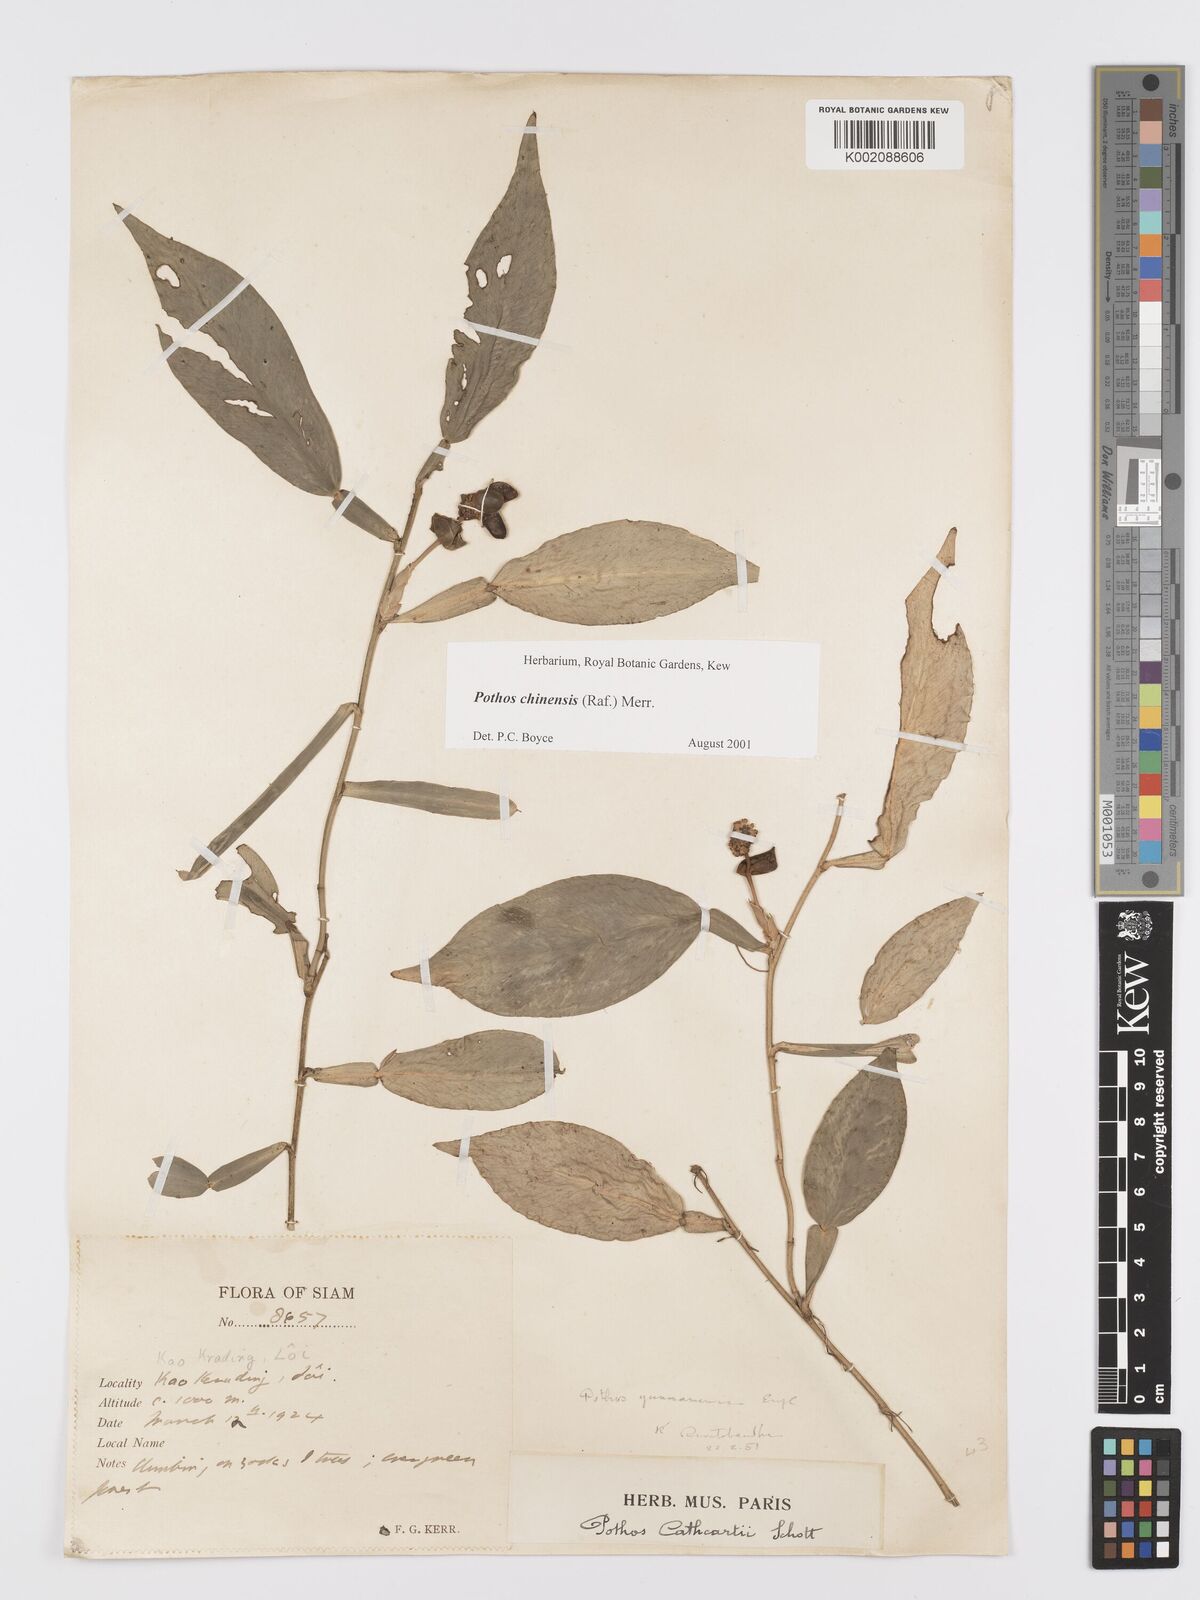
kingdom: Plantae
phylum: Tracheophyta
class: Liliopsida
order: Alismatales
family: Araceae
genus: Pothos
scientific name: Pothos chinensis
